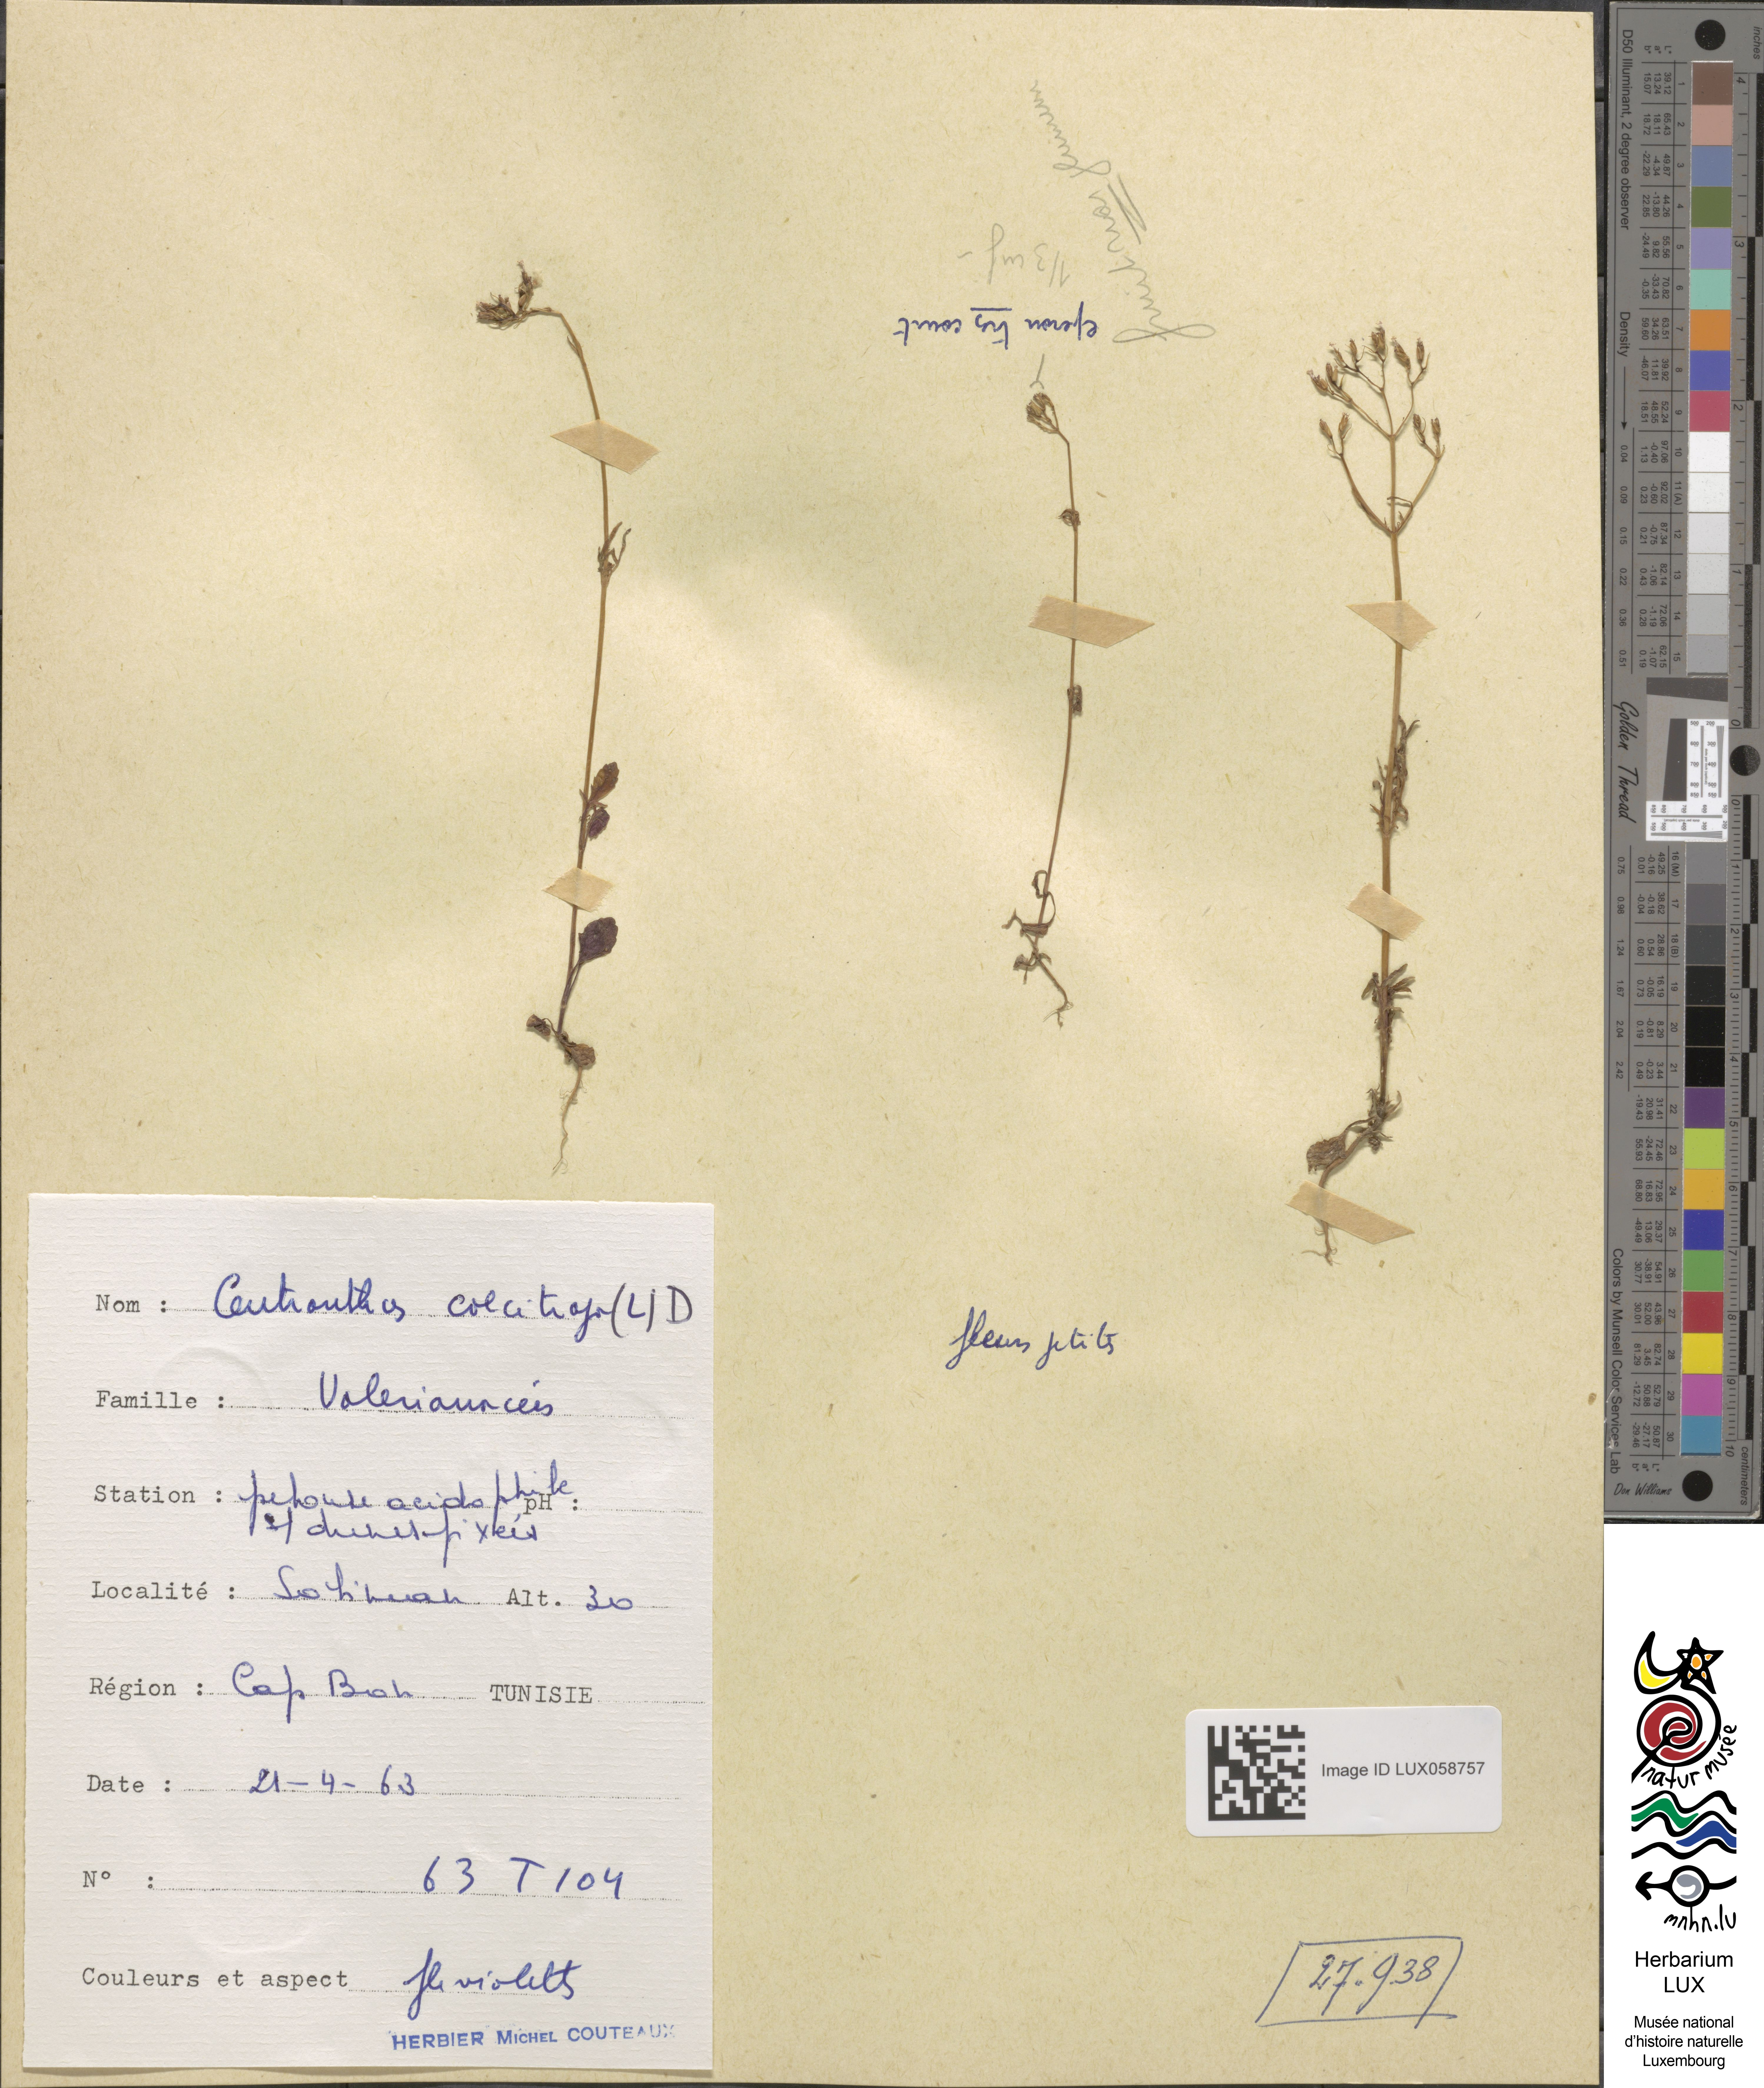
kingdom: Plantae
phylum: Tracheophyta
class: Magnoliopsida
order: Dipsacales
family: Caprifoliaceae
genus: Centranthus
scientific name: Centranthus calcitrapae
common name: Annual valerian
